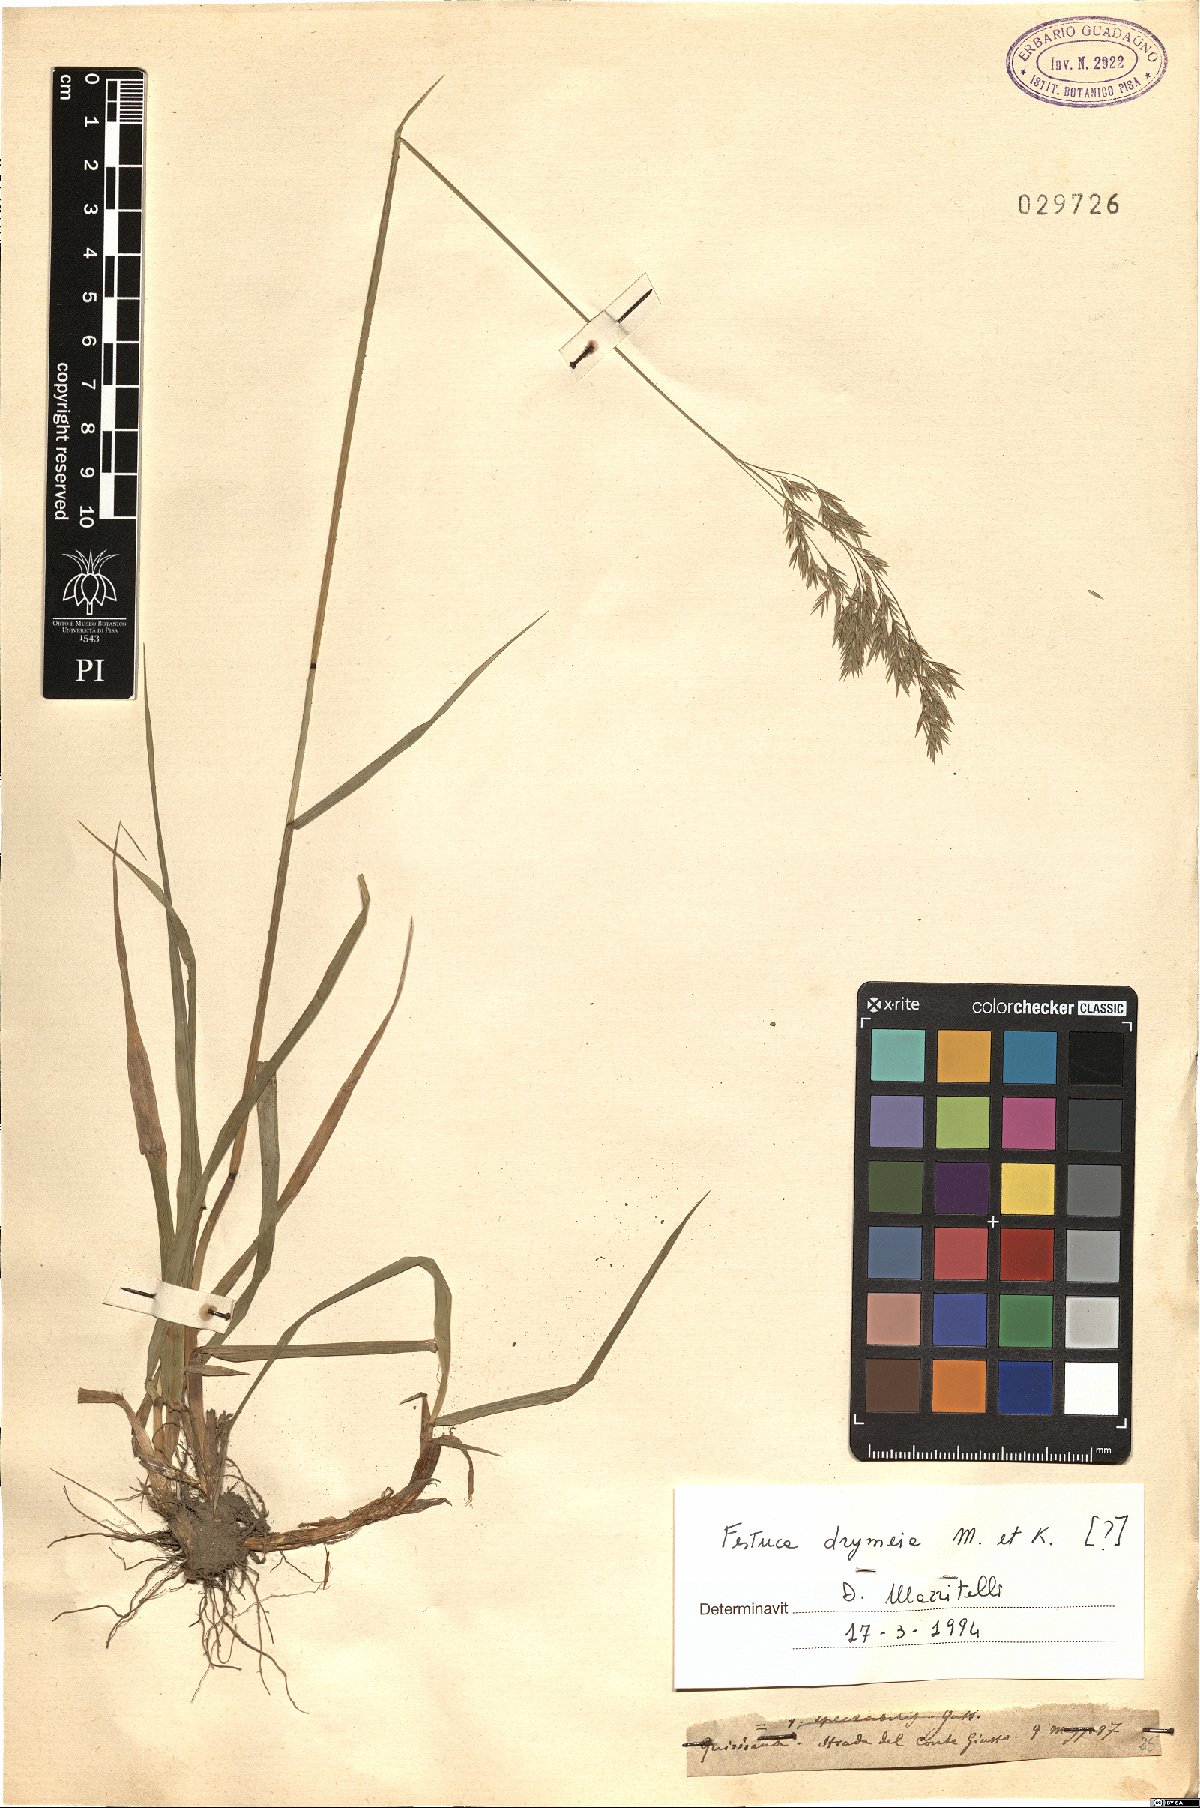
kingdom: Plantae
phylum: Tracheophyta
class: Liliopsida
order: Poales
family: Poaceae
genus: Festuca
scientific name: Festuca drymeja
